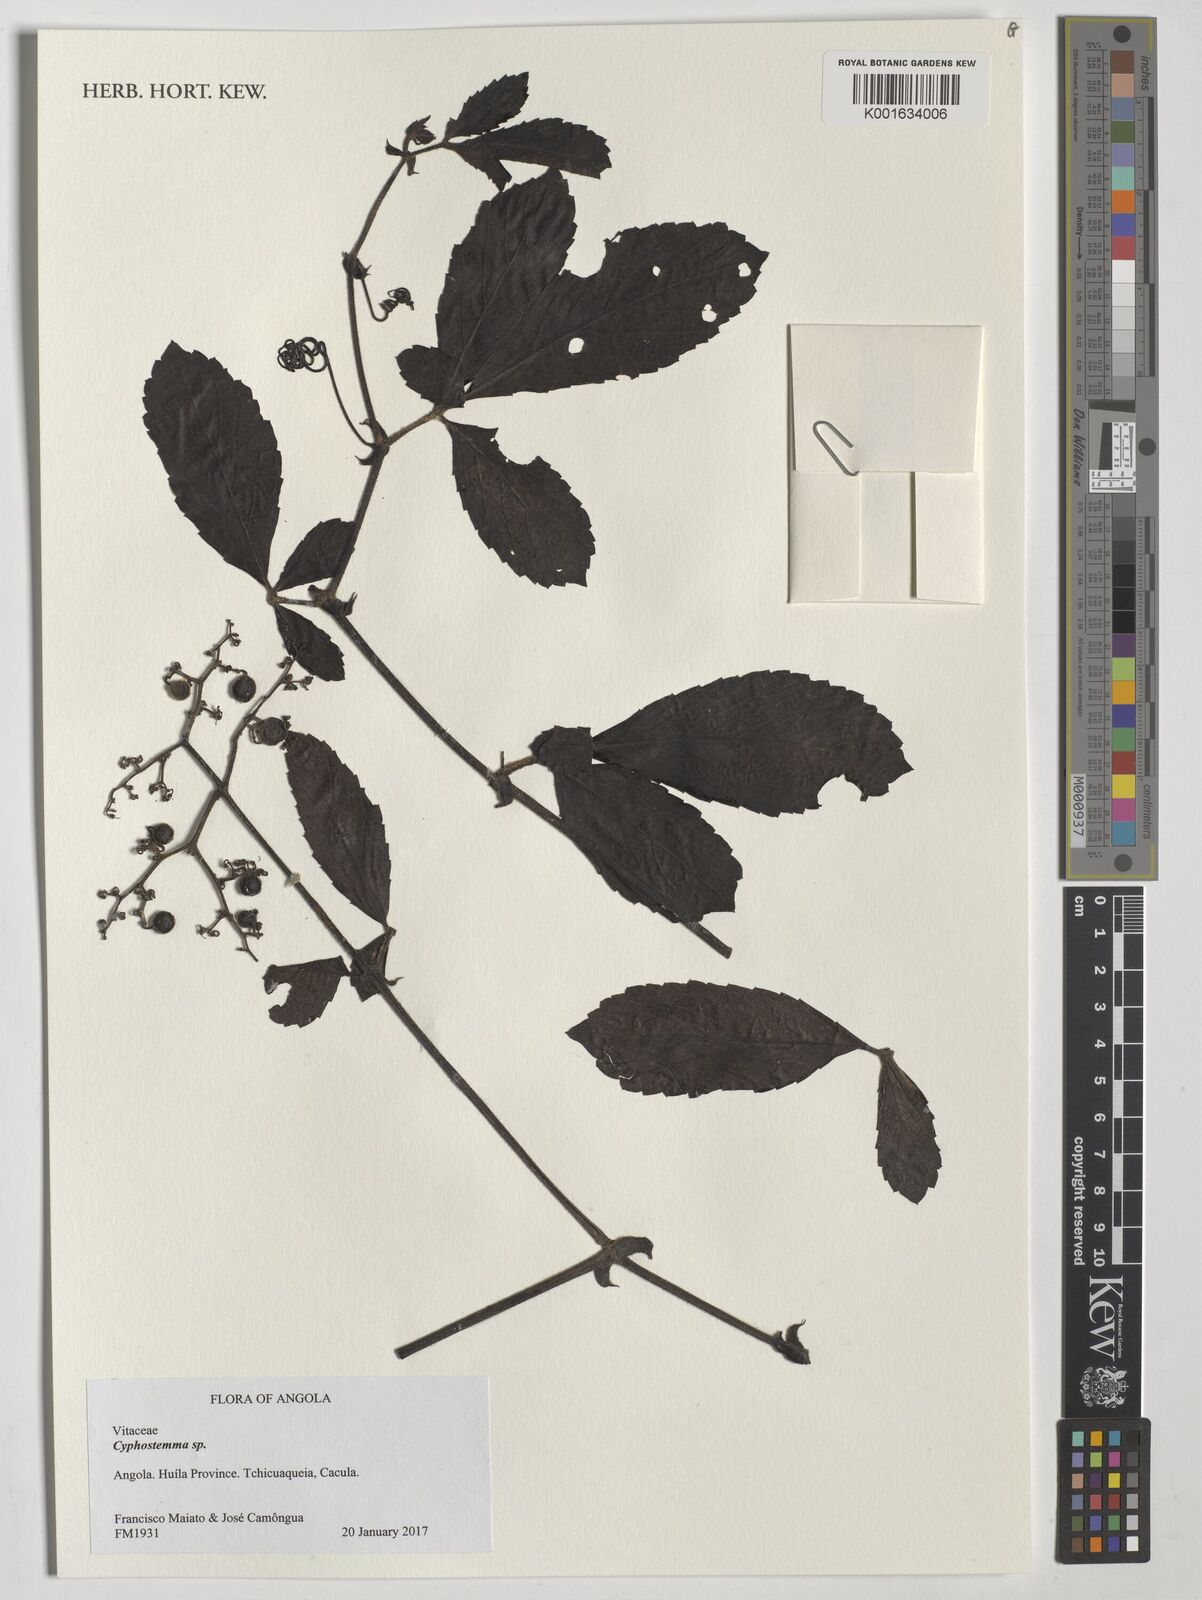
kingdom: Plantae
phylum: Tracheophyta
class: Magnoliopsida
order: Vitales
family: Vitaceae
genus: Cyphostemma
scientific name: Cyphostemma
